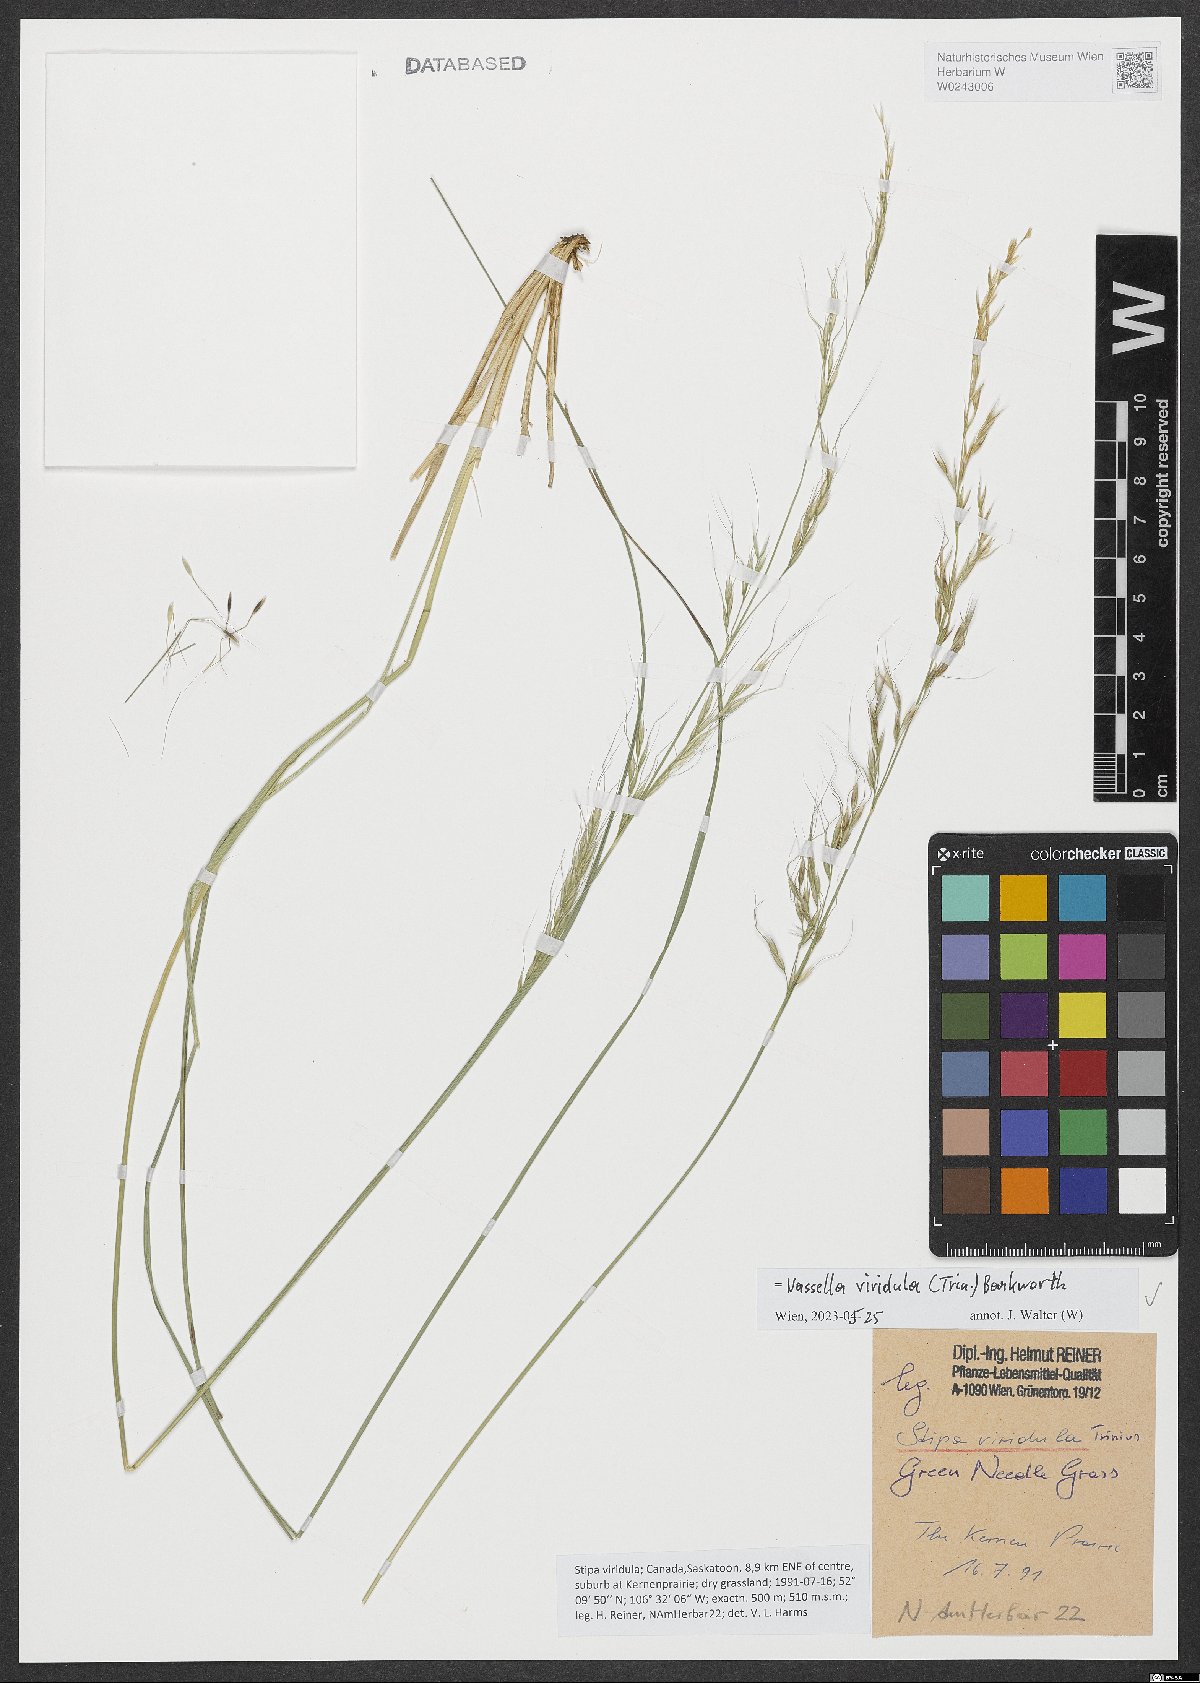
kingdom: Plantae
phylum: Tracheophyta
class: Liliopsida
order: Poales
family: Poaceae
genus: Nassella
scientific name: Nassella viridula
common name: Green needlegrass
